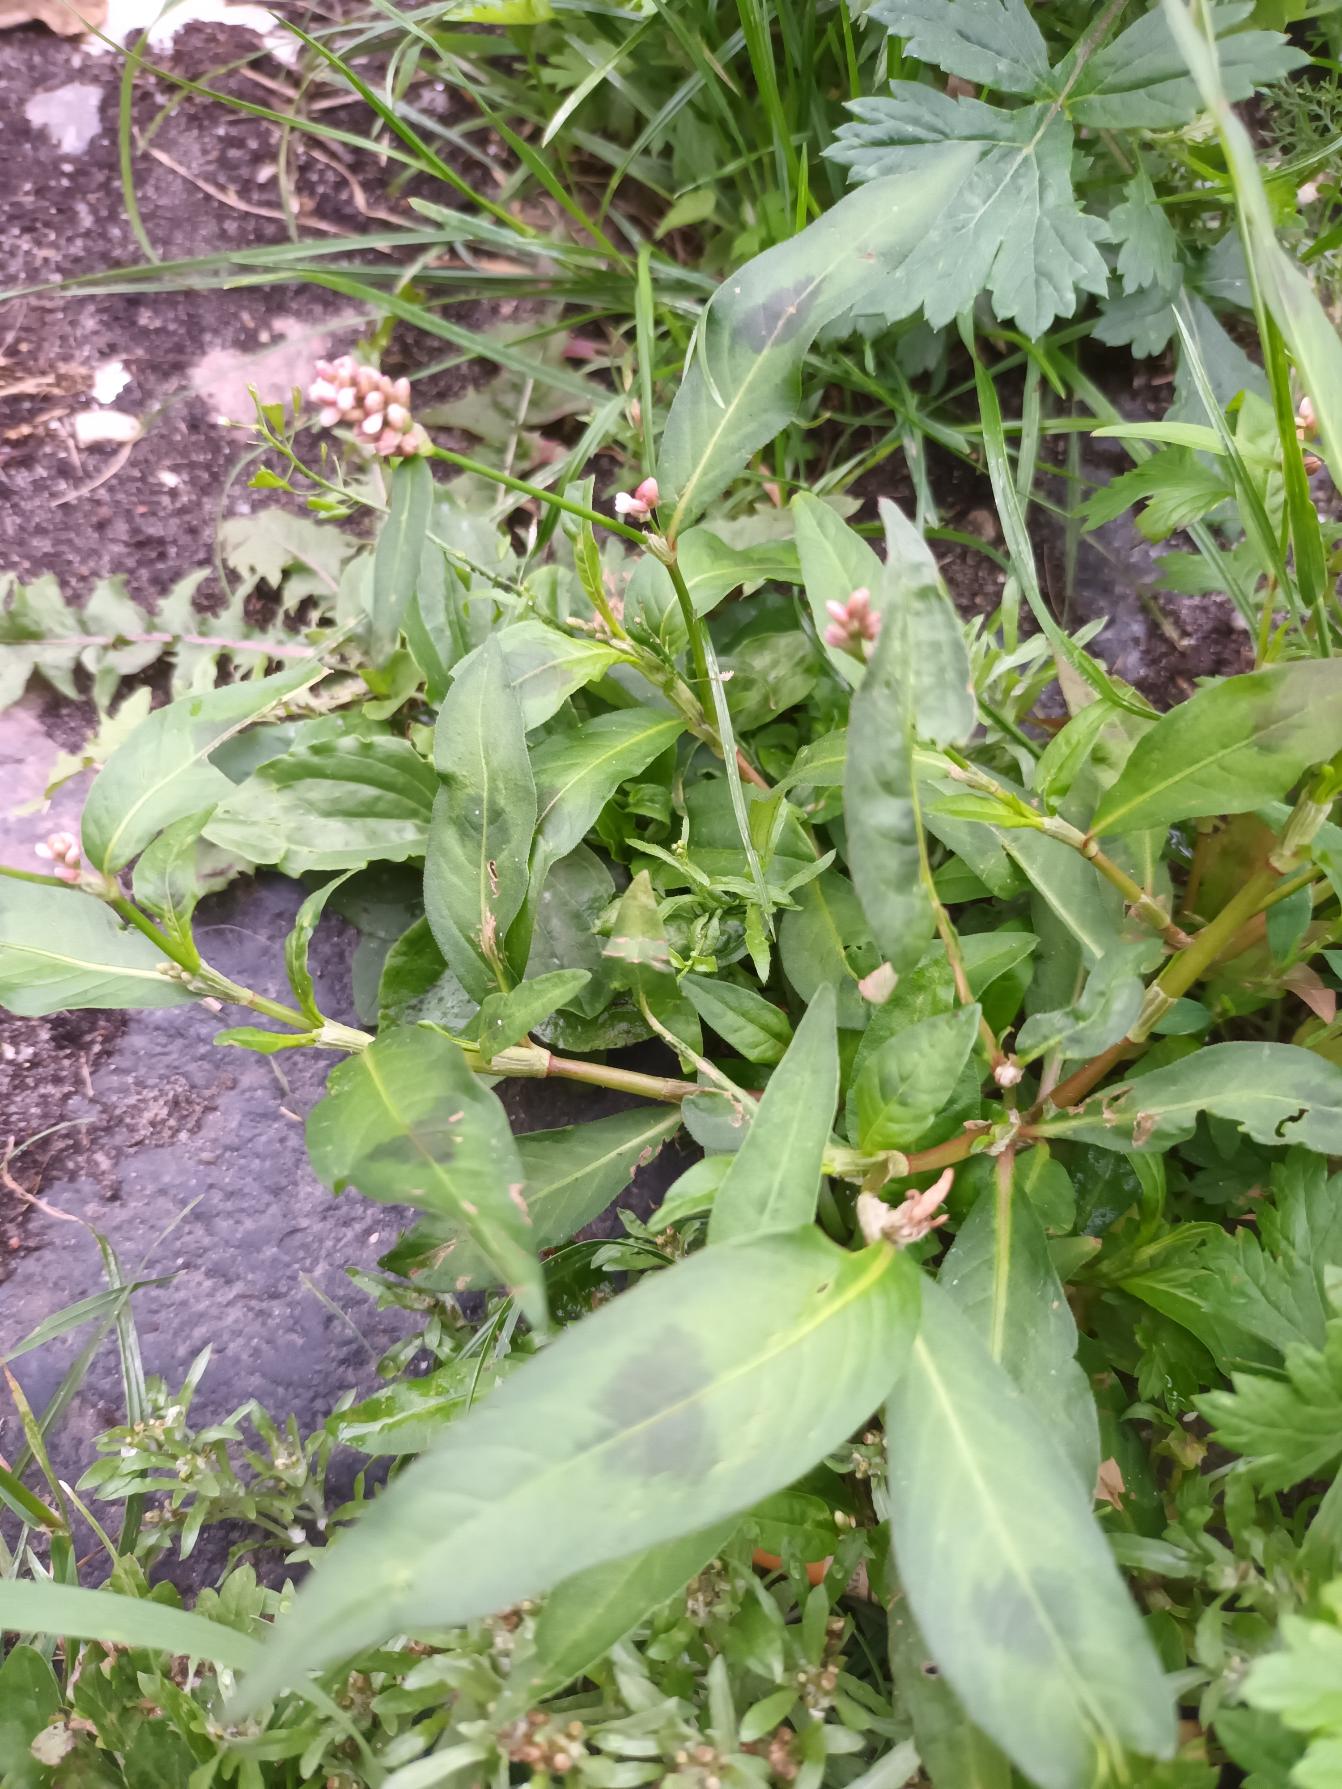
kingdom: Plantae
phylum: Tracheophyta
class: Magnoliopsida
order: Caryophyllales
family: Polygonaceae
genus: Persicaria
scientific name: Persicaria maculosa
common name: Fersken-pileurt
